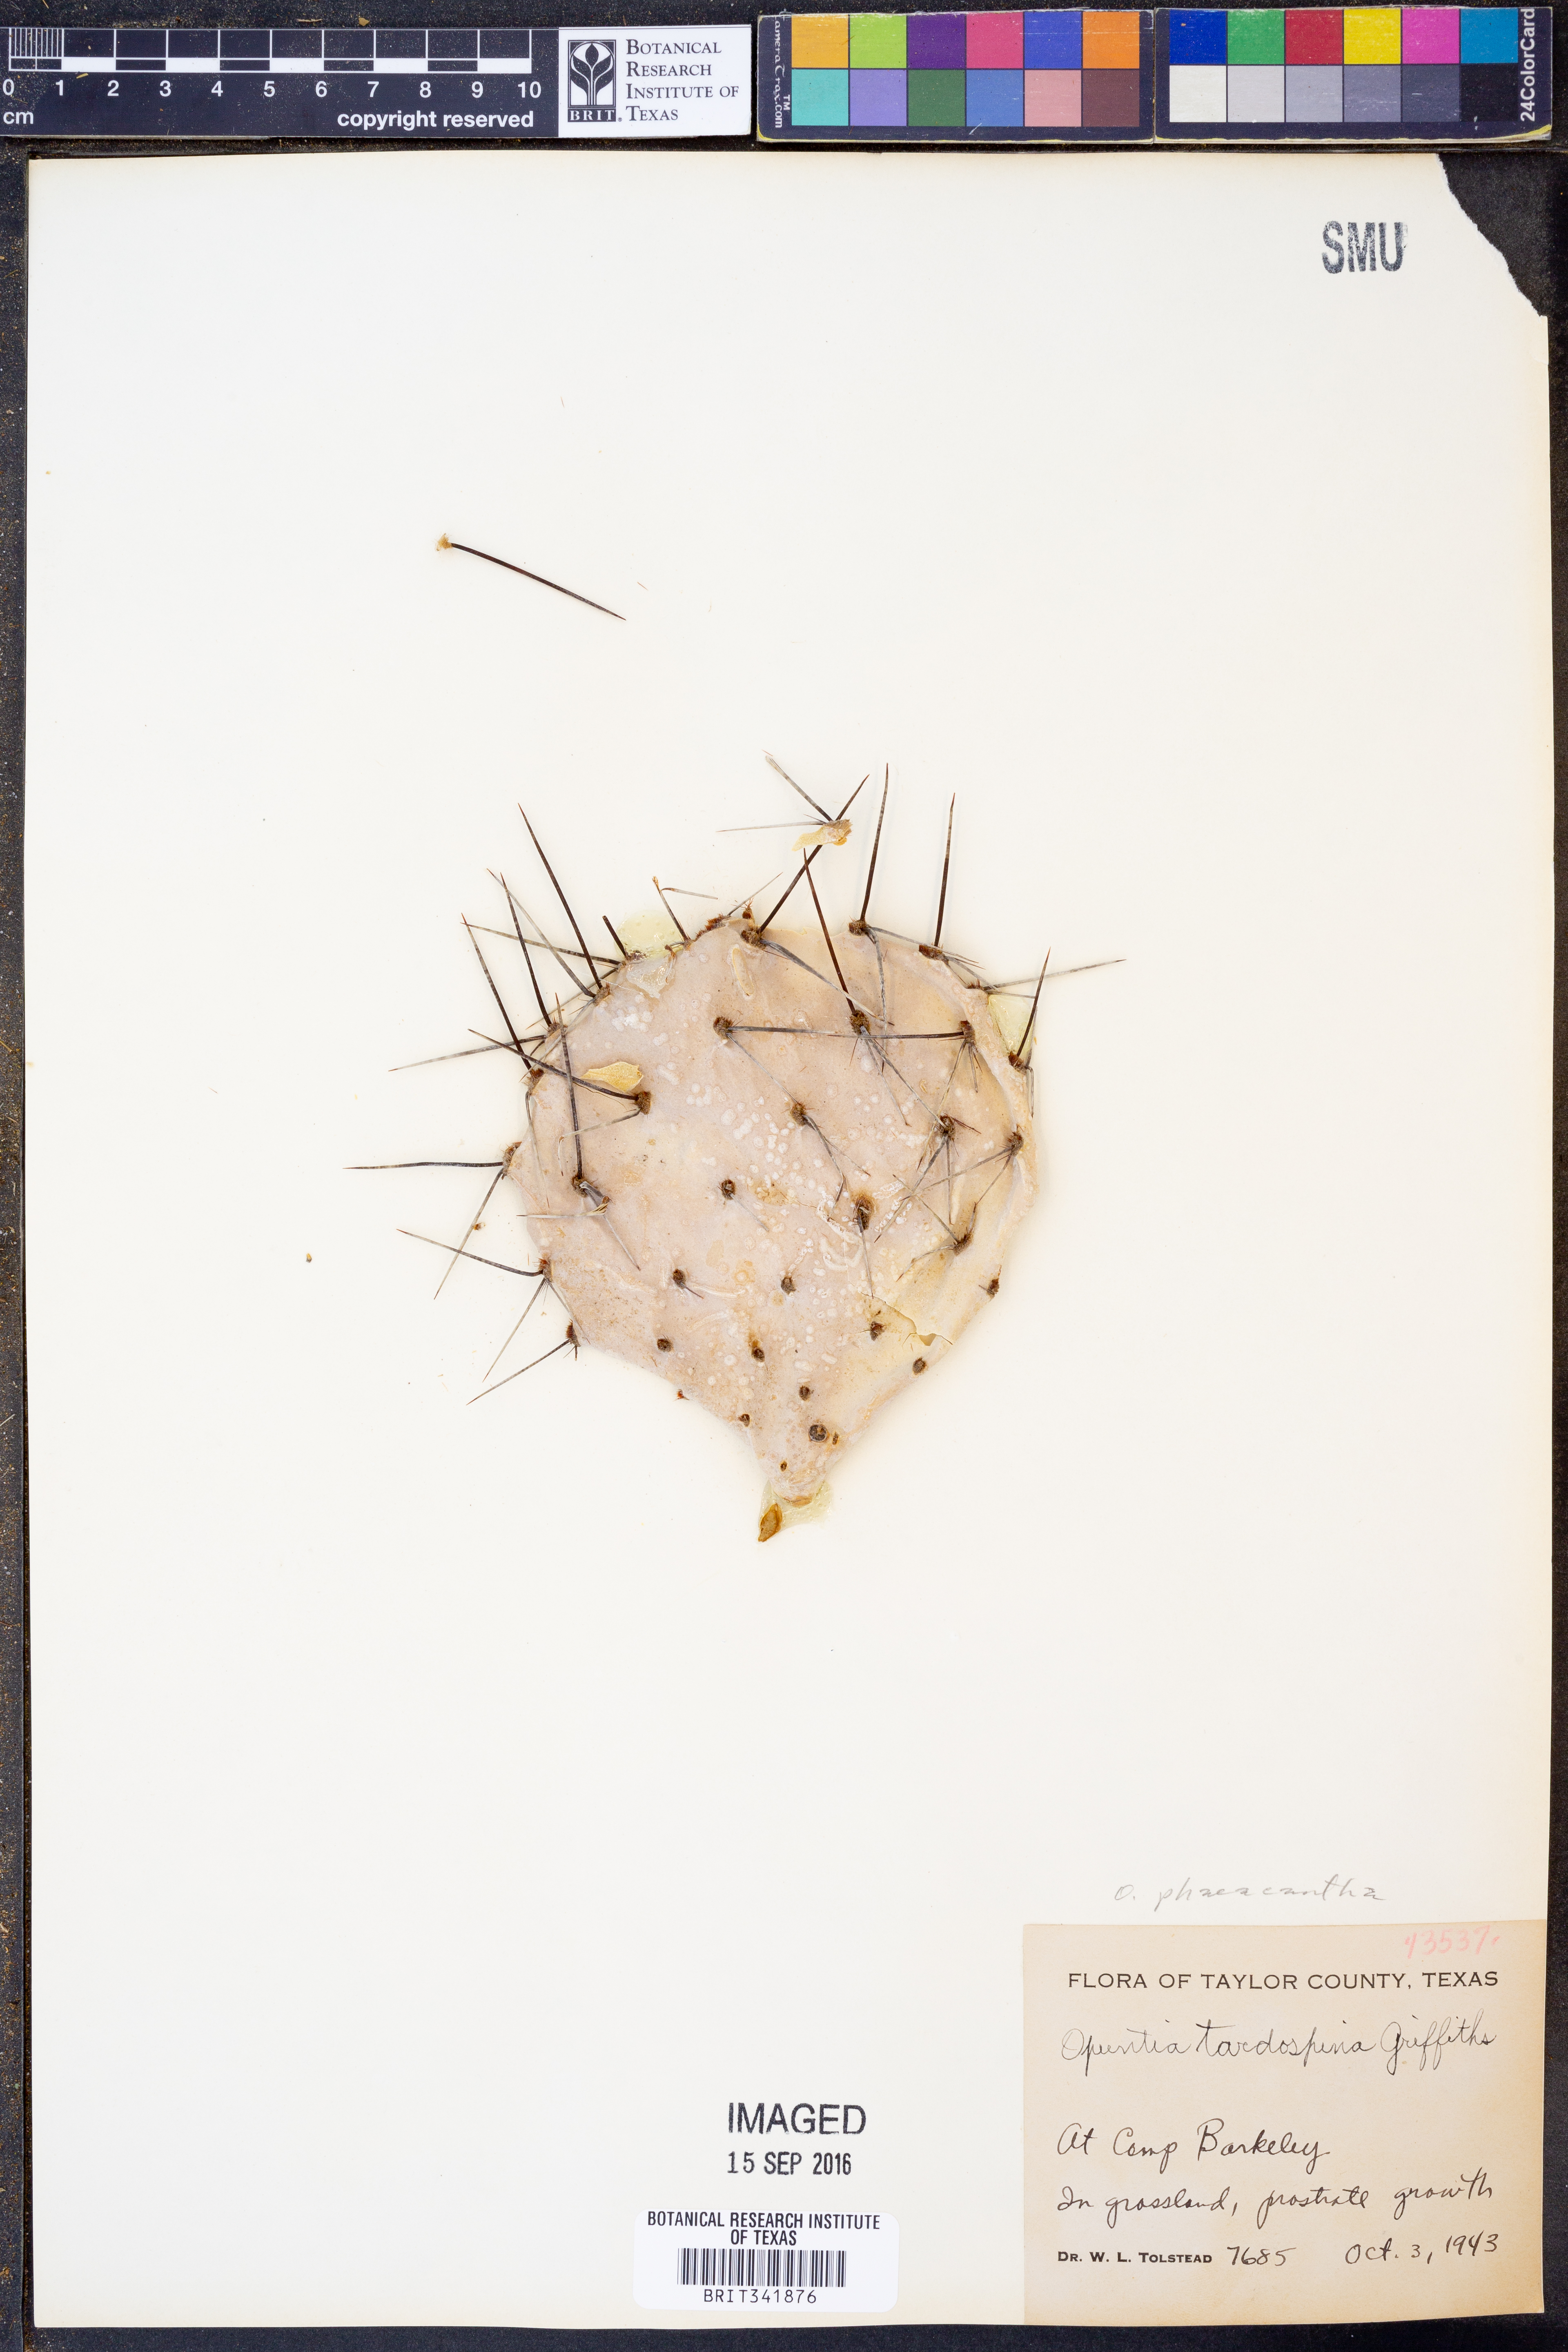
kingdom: Plantae
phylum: Tracheophyta
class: Magnoliopsida
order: Caryophyllales
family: Cactaceae
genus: Opuntia
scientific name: Opuntia phaeacantha
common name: New mexico prickly-pear
